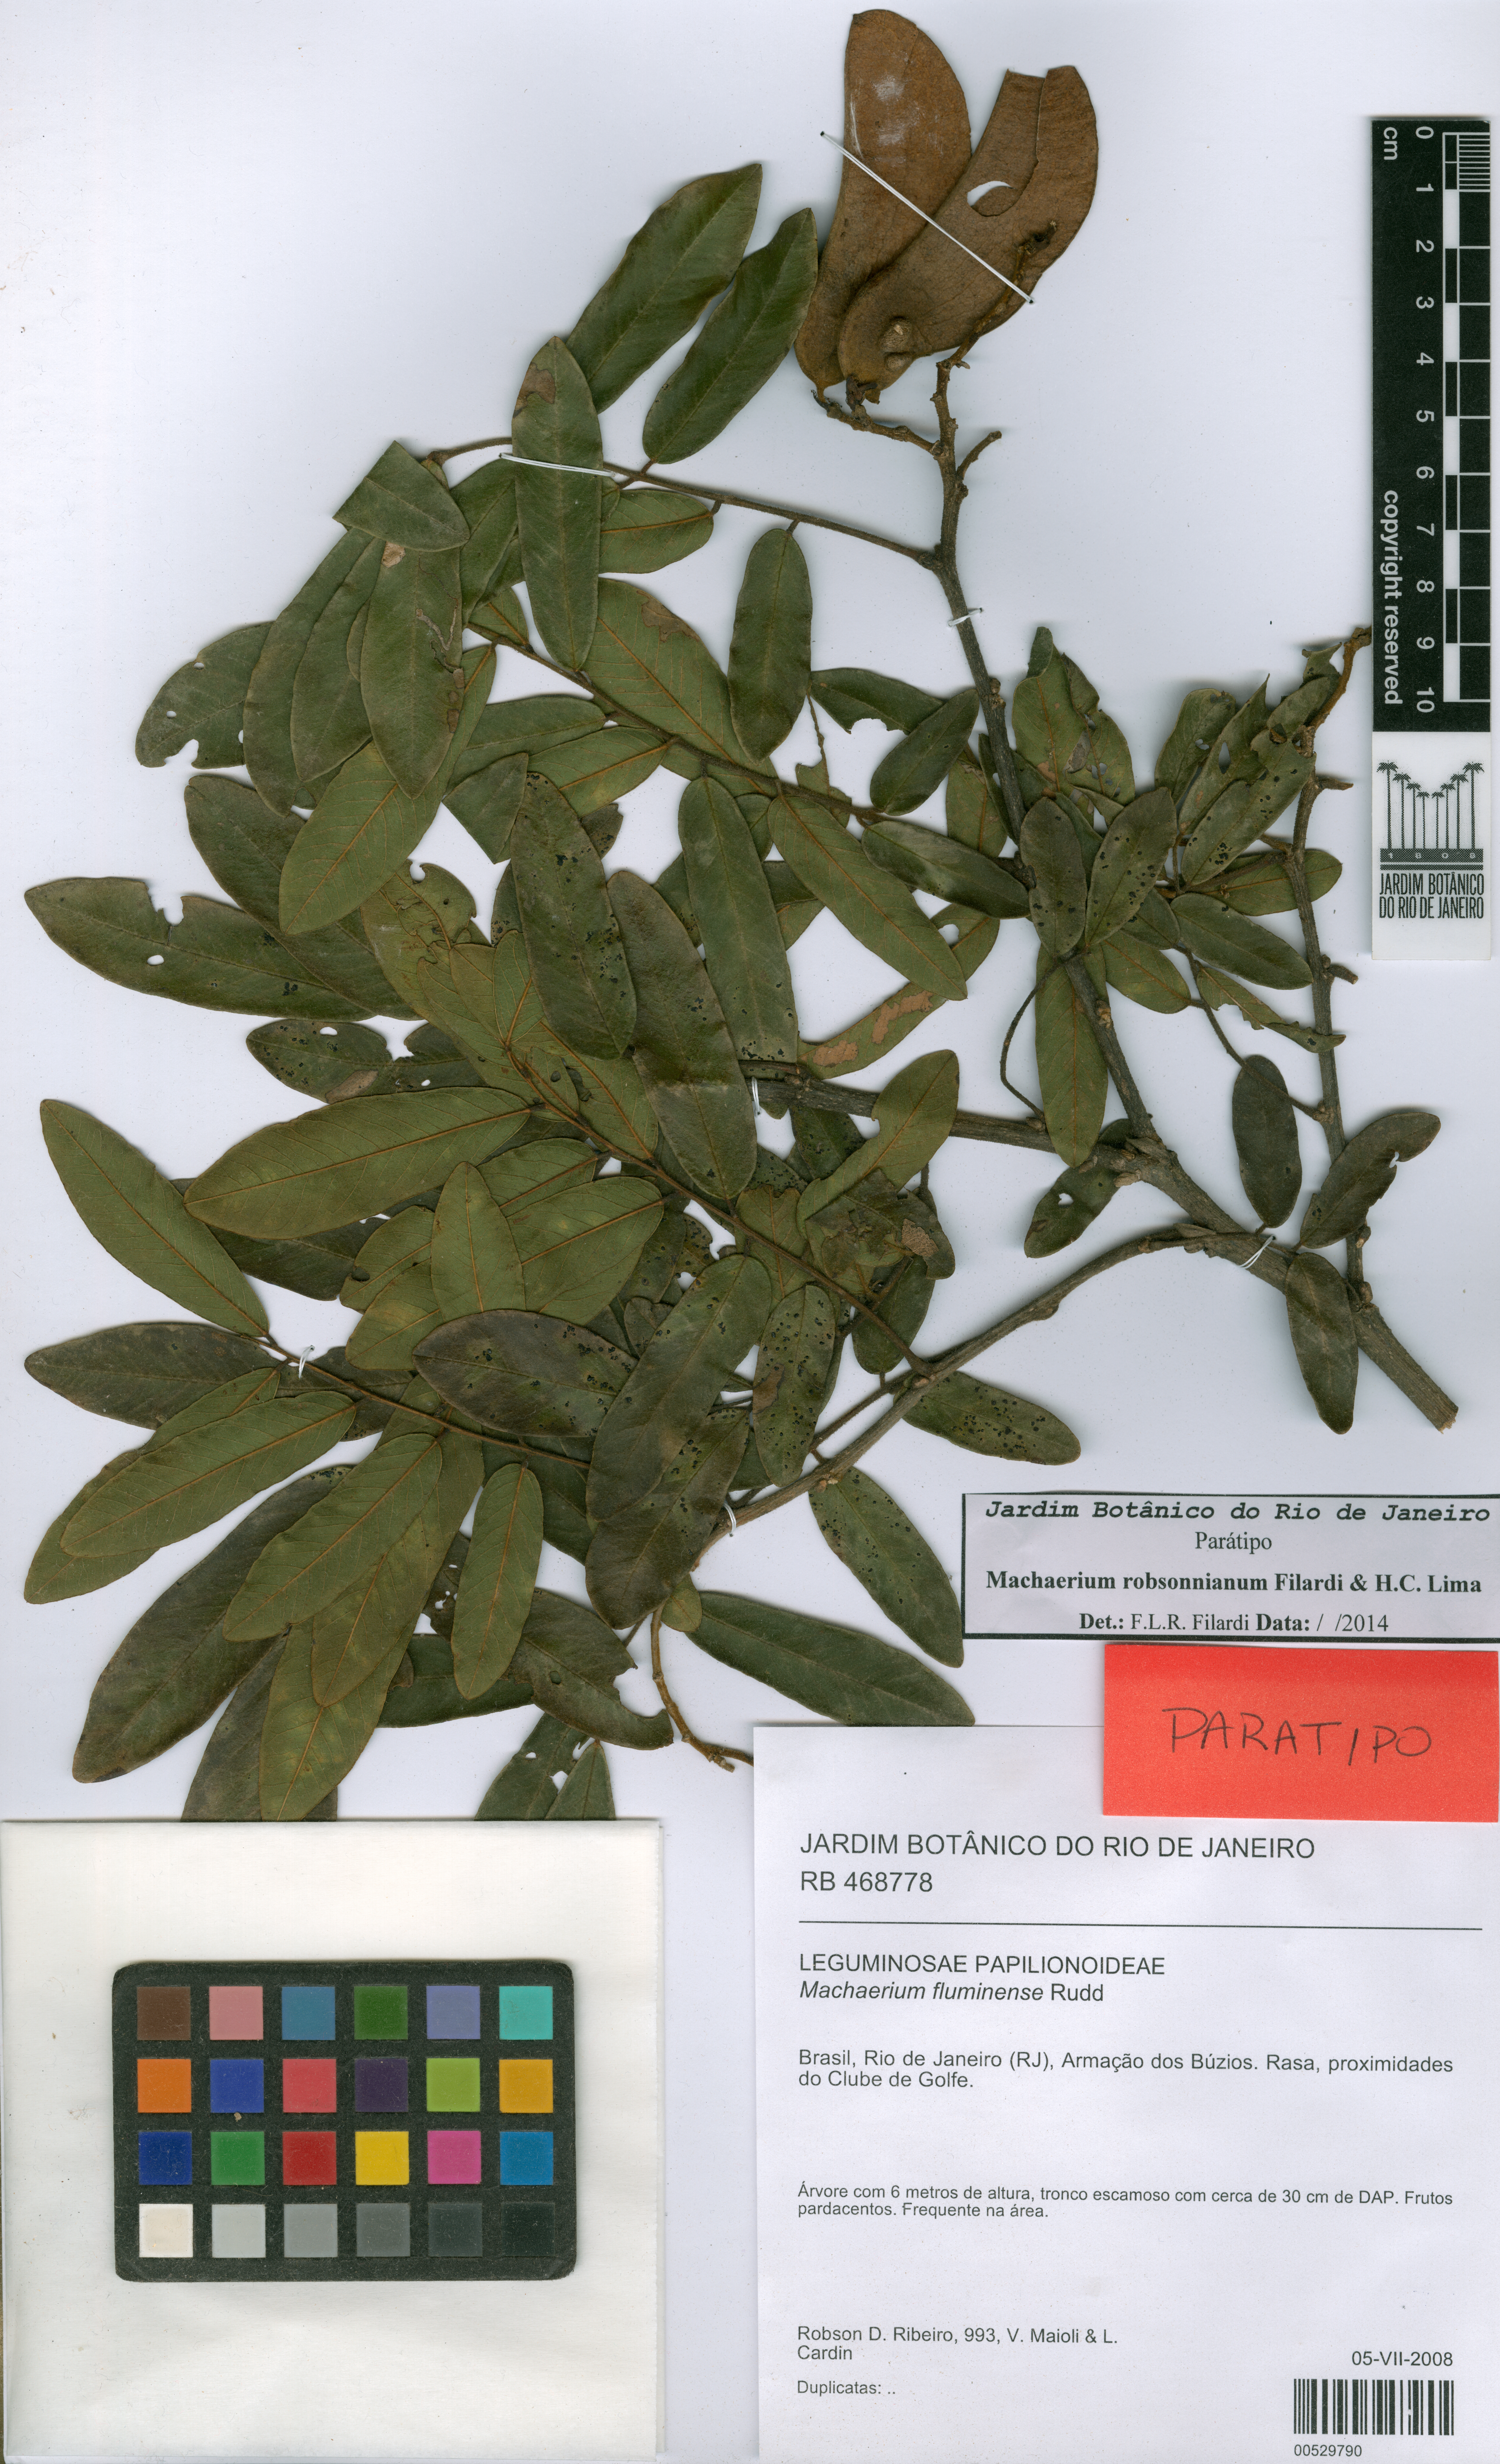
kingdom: Plantae
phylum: Tracheophyta
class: Magnoliopsida
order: Fabales
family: Fabaceae
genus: Machaerium
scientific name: Machaerium robsonianum
